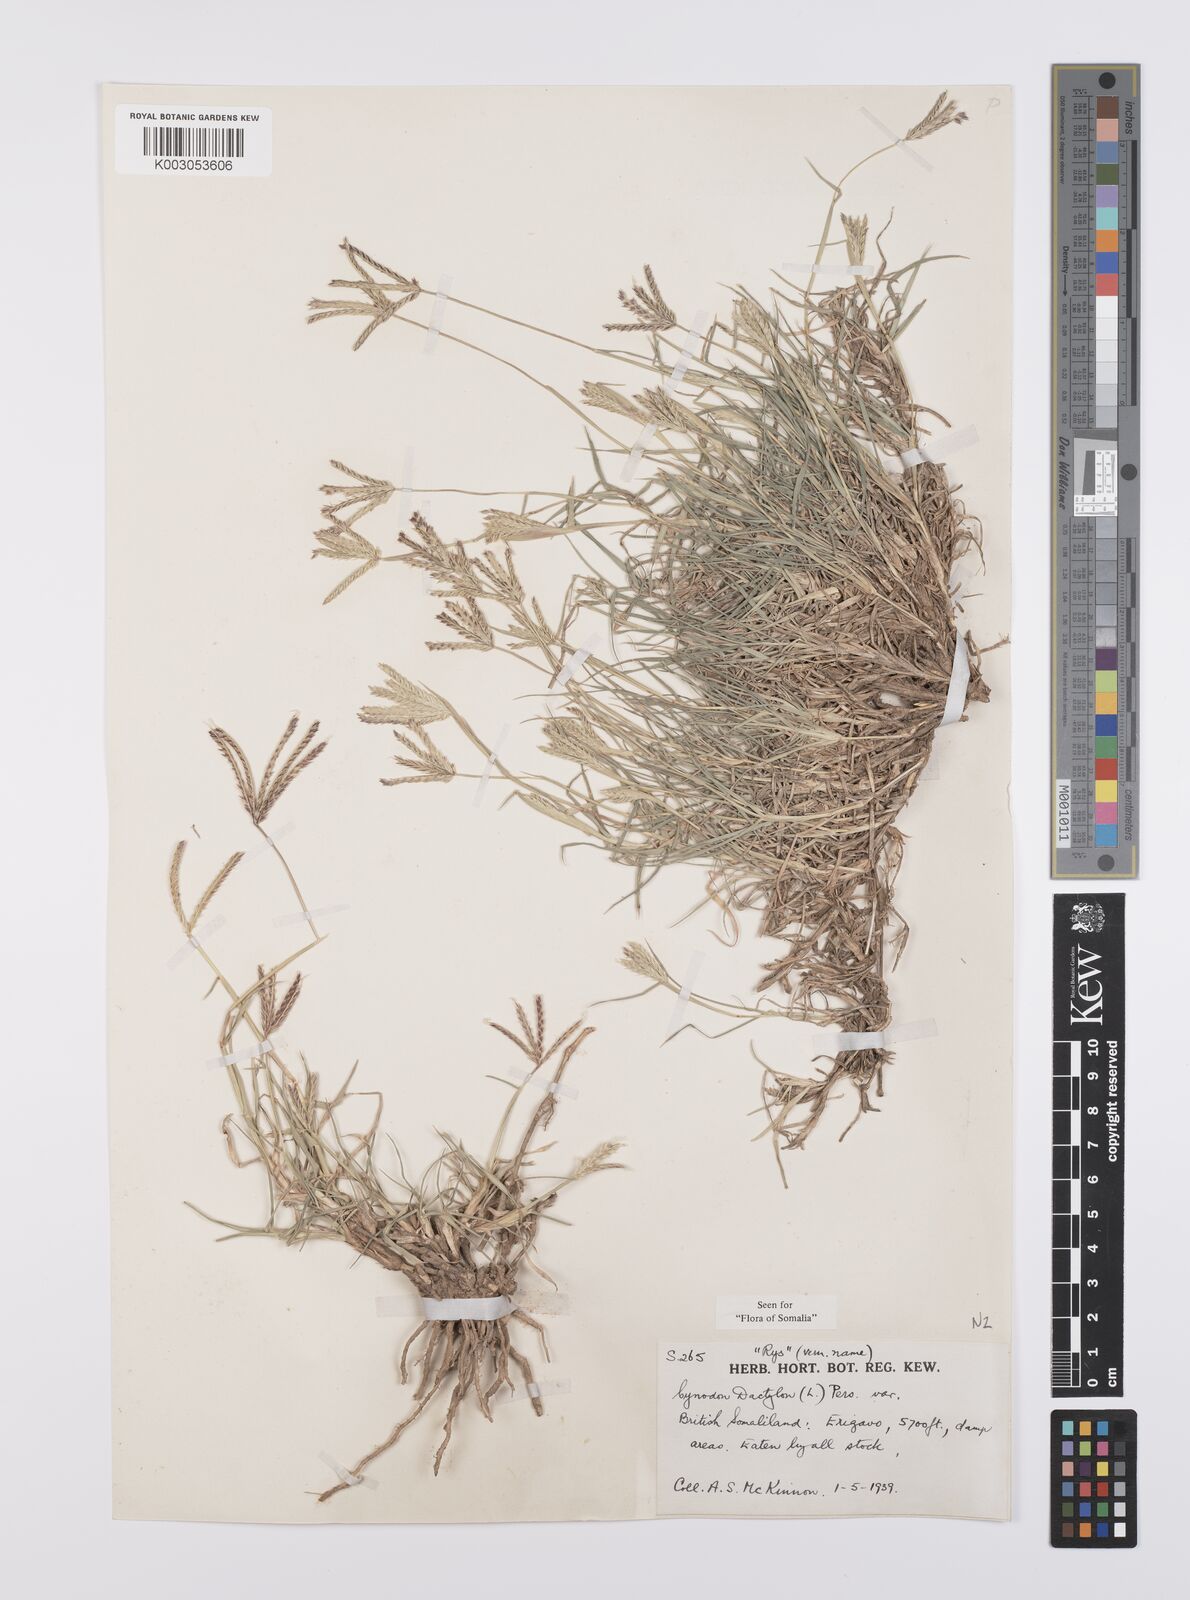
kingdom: Plantae
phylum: Tracheophyta
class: Liliopsida
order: Poales
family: Poaceae
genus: Cynodon
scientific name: Cynodon dactylon
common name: Bermuda grass
